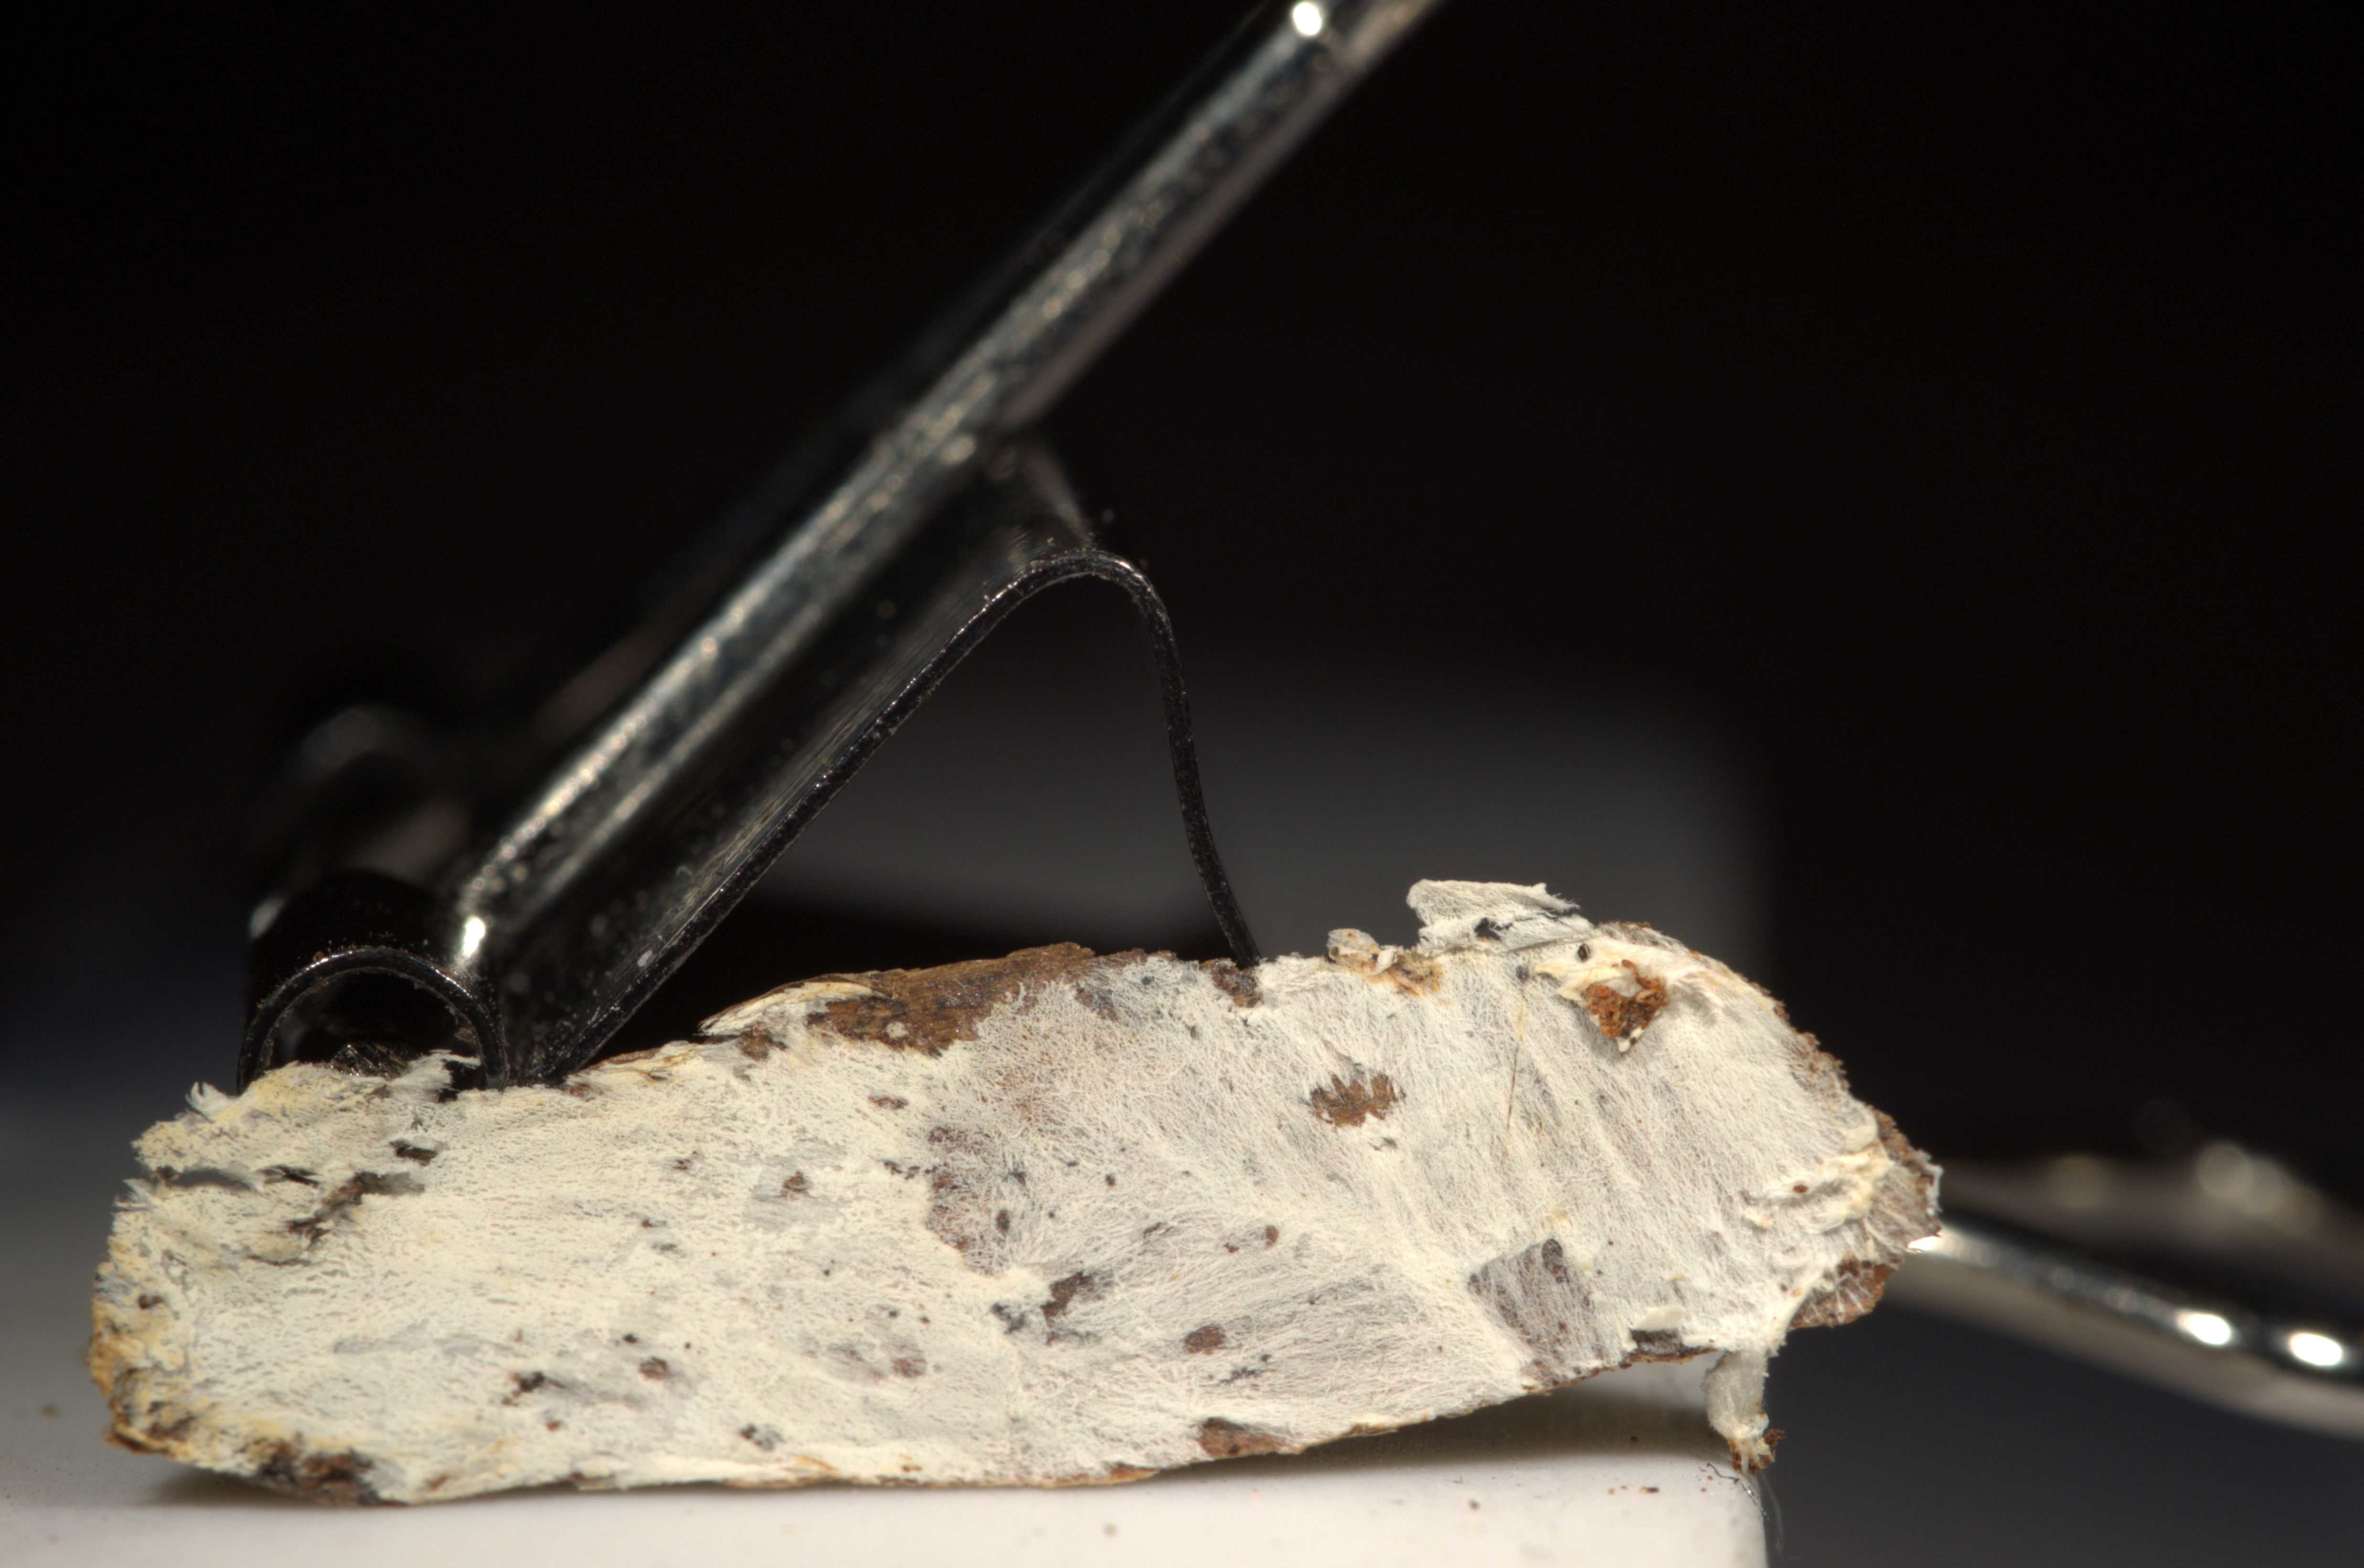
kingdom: Fungi
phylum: Basidiomycota
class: Agaricomycetes
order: Trechisporales
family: Sistotremataceae
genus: Trechispora
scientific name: Trechispora cohaerens
